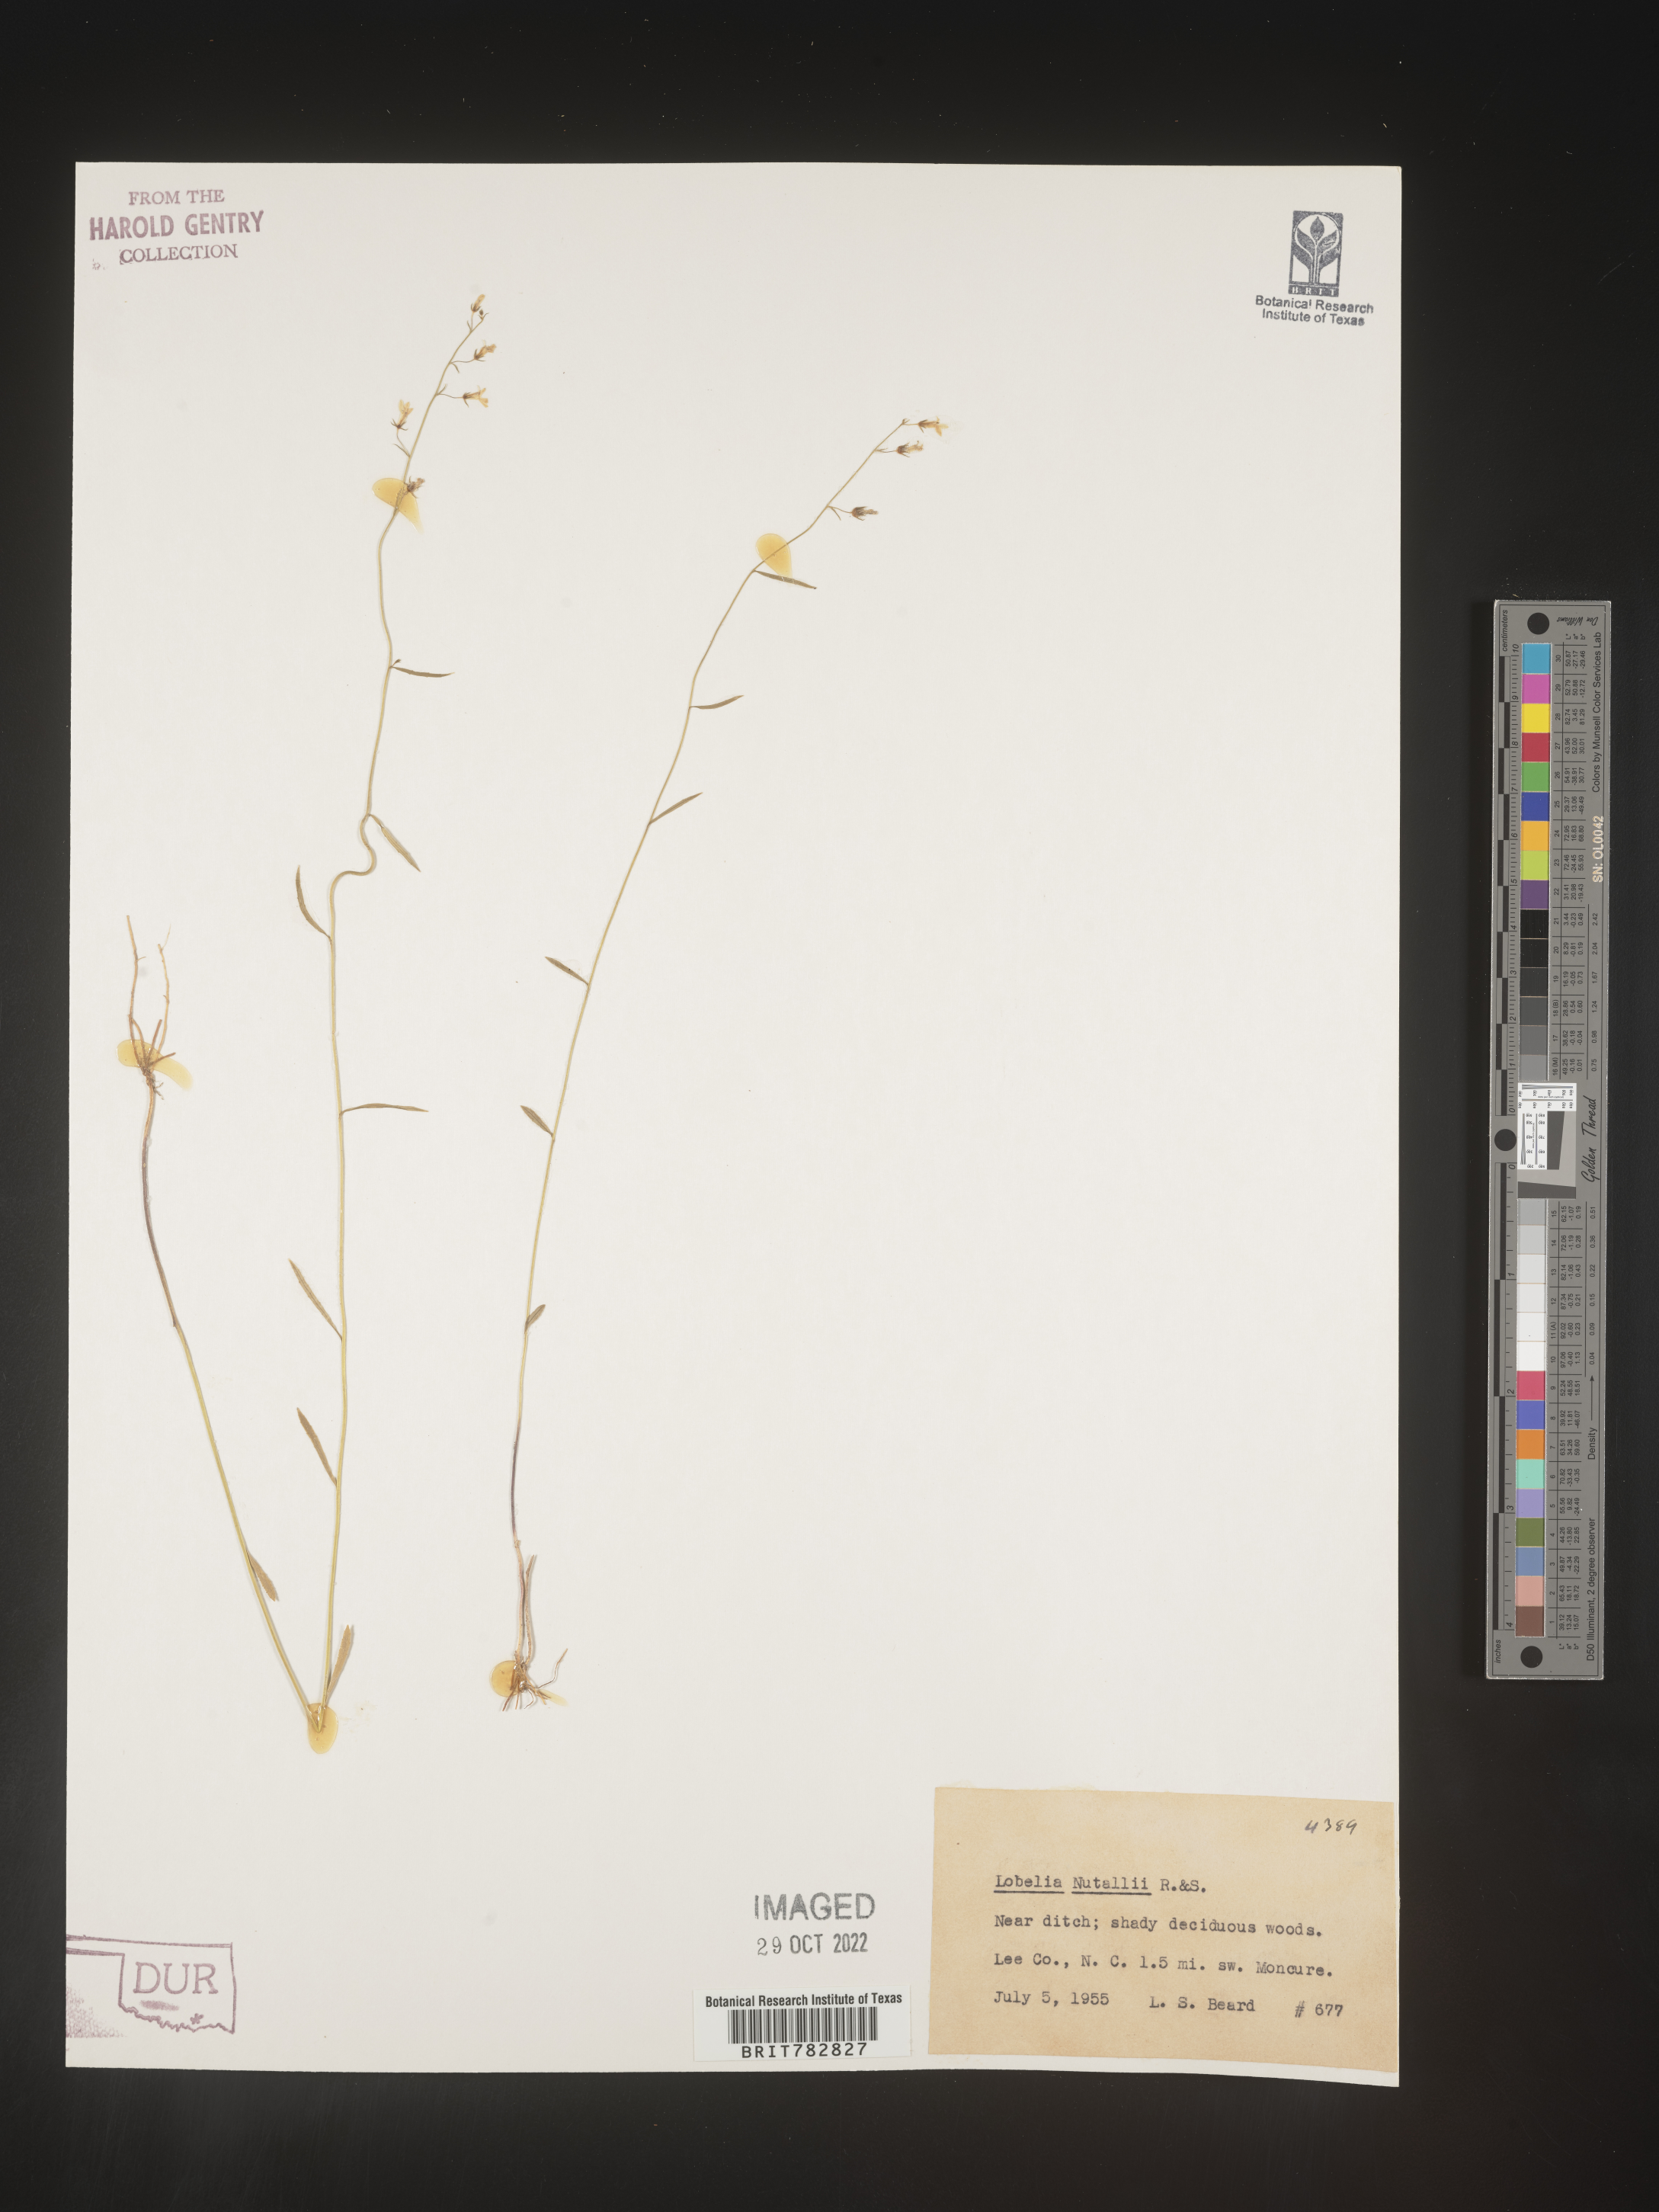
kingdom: Plantae
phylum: Tracheophyta
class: Magnoliopsida
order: Asterales
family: Campanulaceae
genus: Lobelia
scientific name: Lobelia nuttallii
